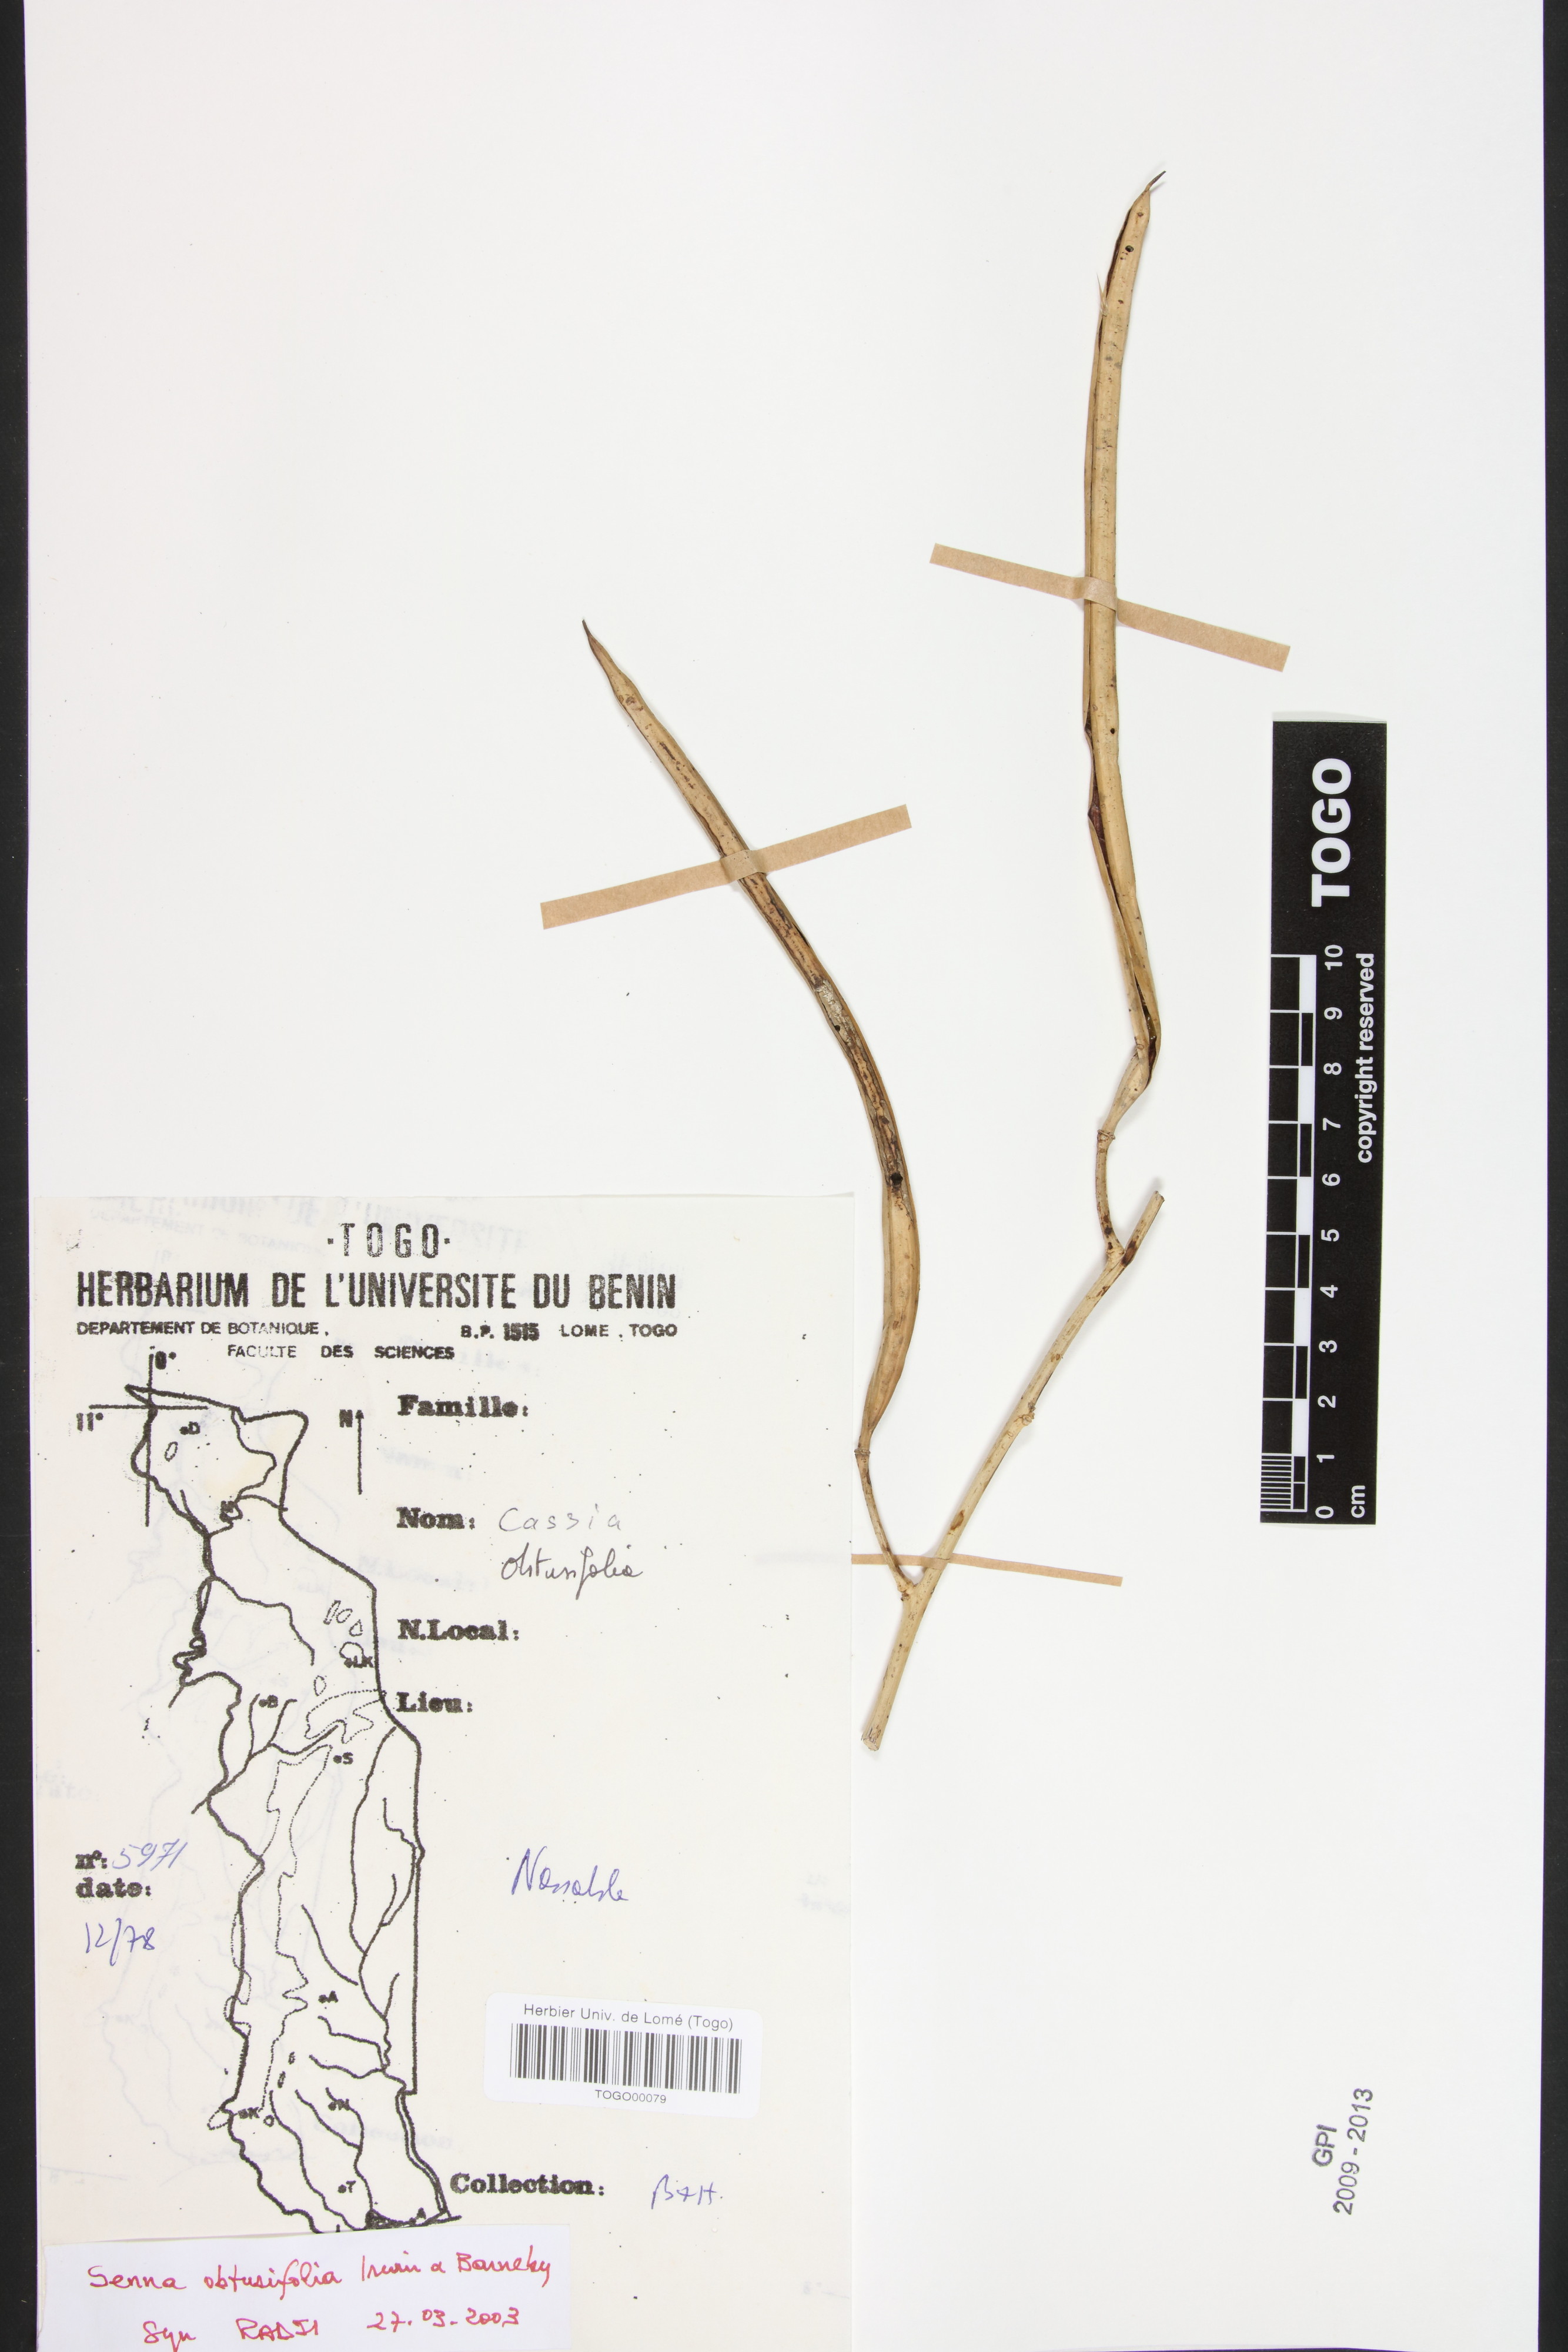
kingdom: Plantae
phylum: Tracheophyta
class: Magnoliopsida
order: Fabales
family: Fabaceae
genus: Senna
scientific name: Senna obtusifolia
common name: Java-bean
